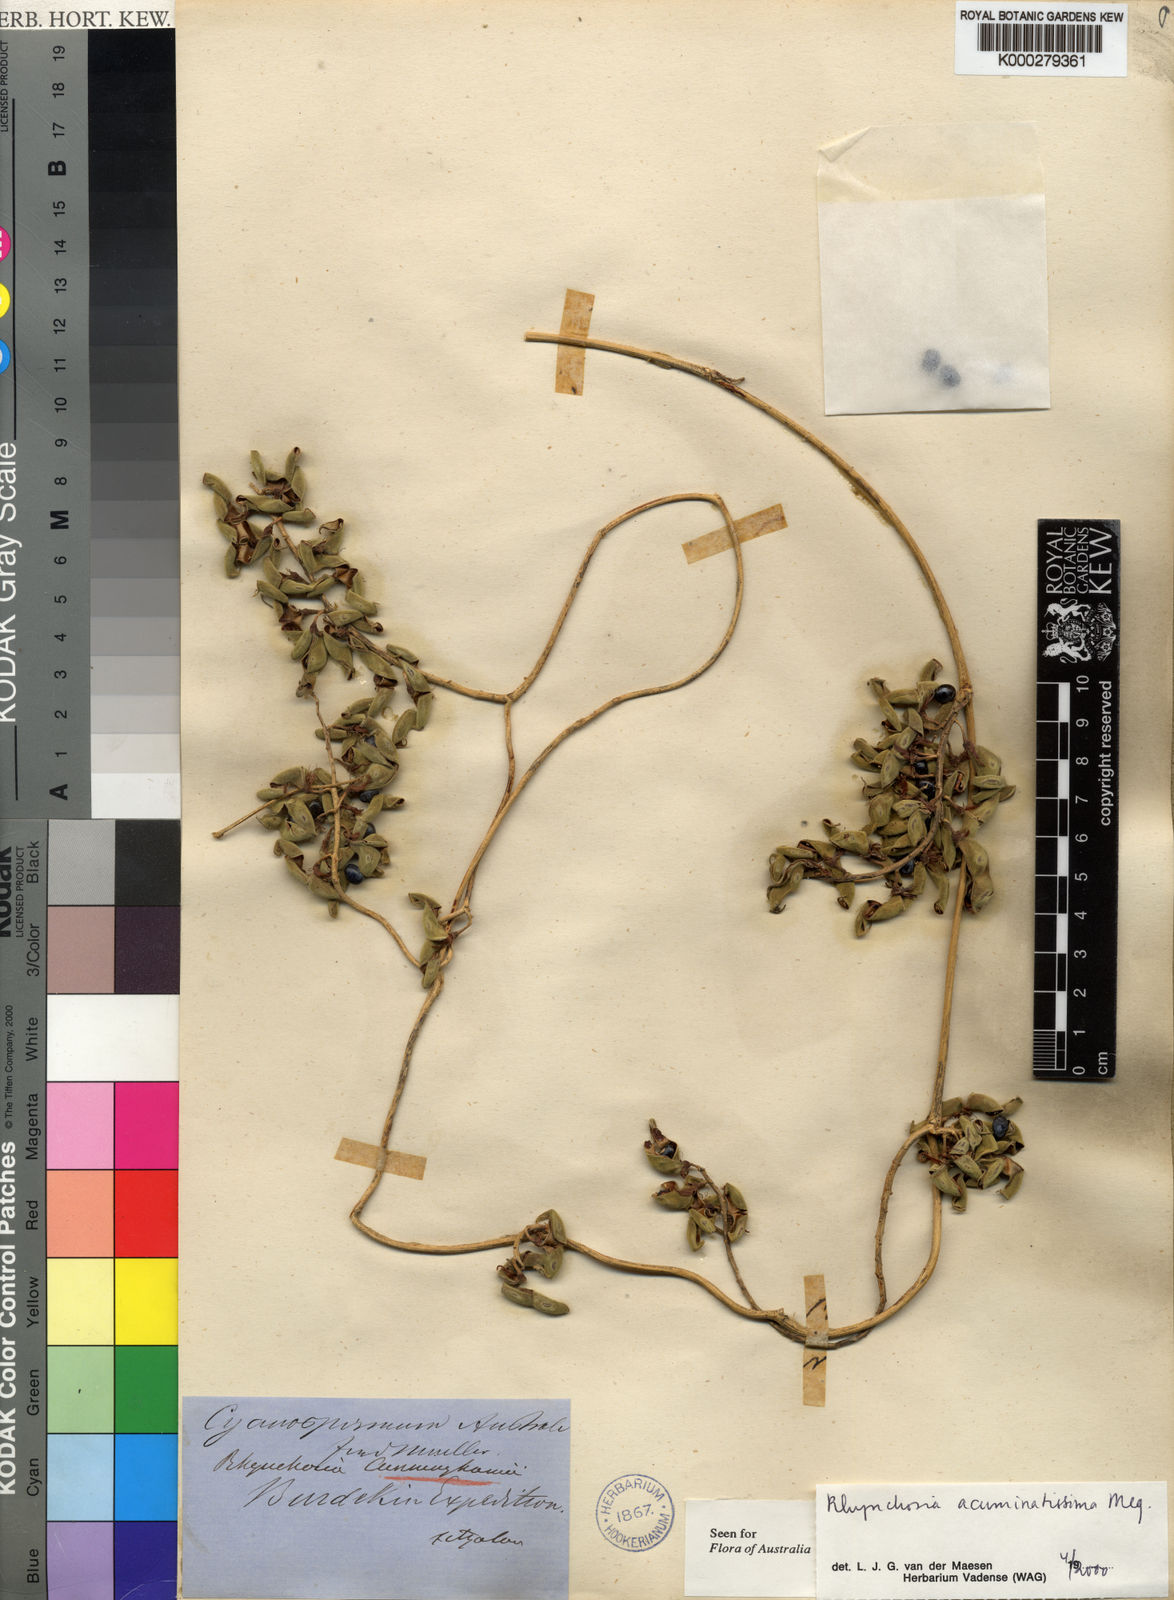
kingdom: Plantae
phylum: Tracheophyta
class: Magnoliopsida
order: Fabales
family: Fabaceae
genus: Rhynchosia
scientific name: Rhynchosia acuminatissima
